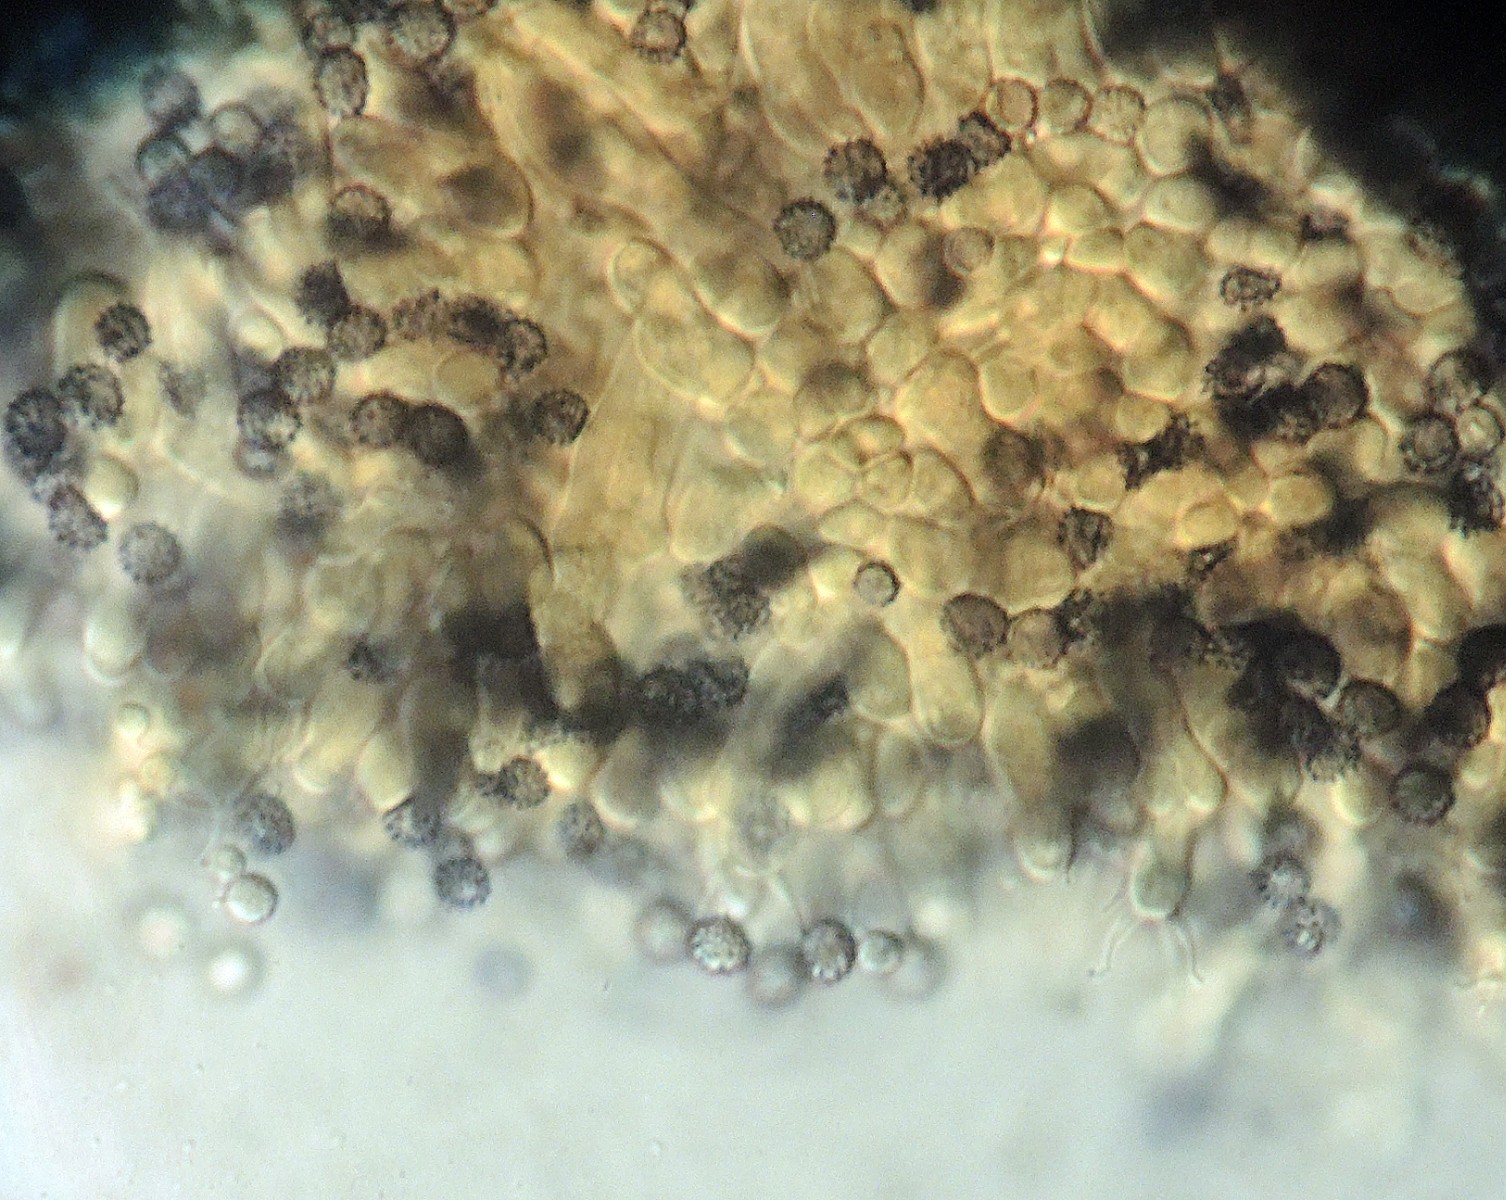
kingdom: Fungi
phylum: Basidiomycota
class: Agaricomycetes
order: Russulales
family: Russulaceae
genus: Boidinia
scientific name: Boidinia furfuracea
